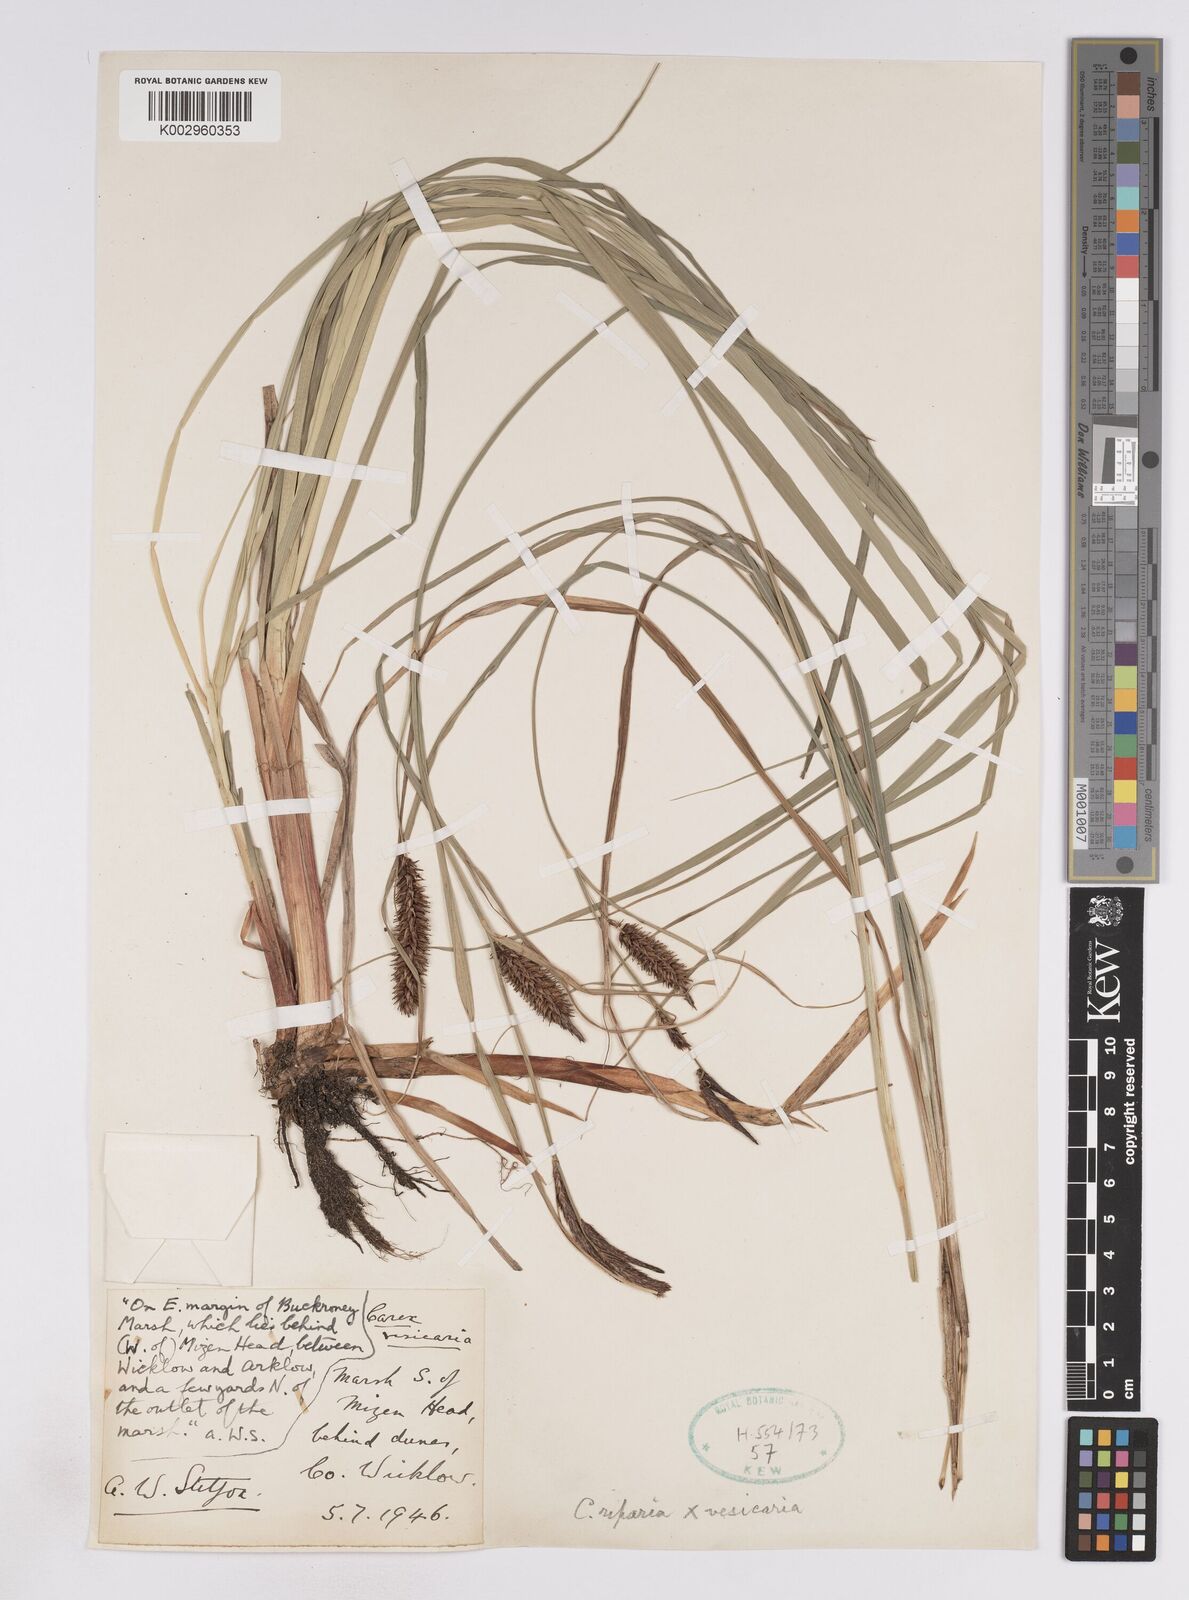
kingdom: Plantae
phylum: Tracheophyta
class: Liliopsida
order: Poales
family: Cyperaceae
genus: Carex
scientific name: Carex vesicaria
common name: Bladder-sedge
